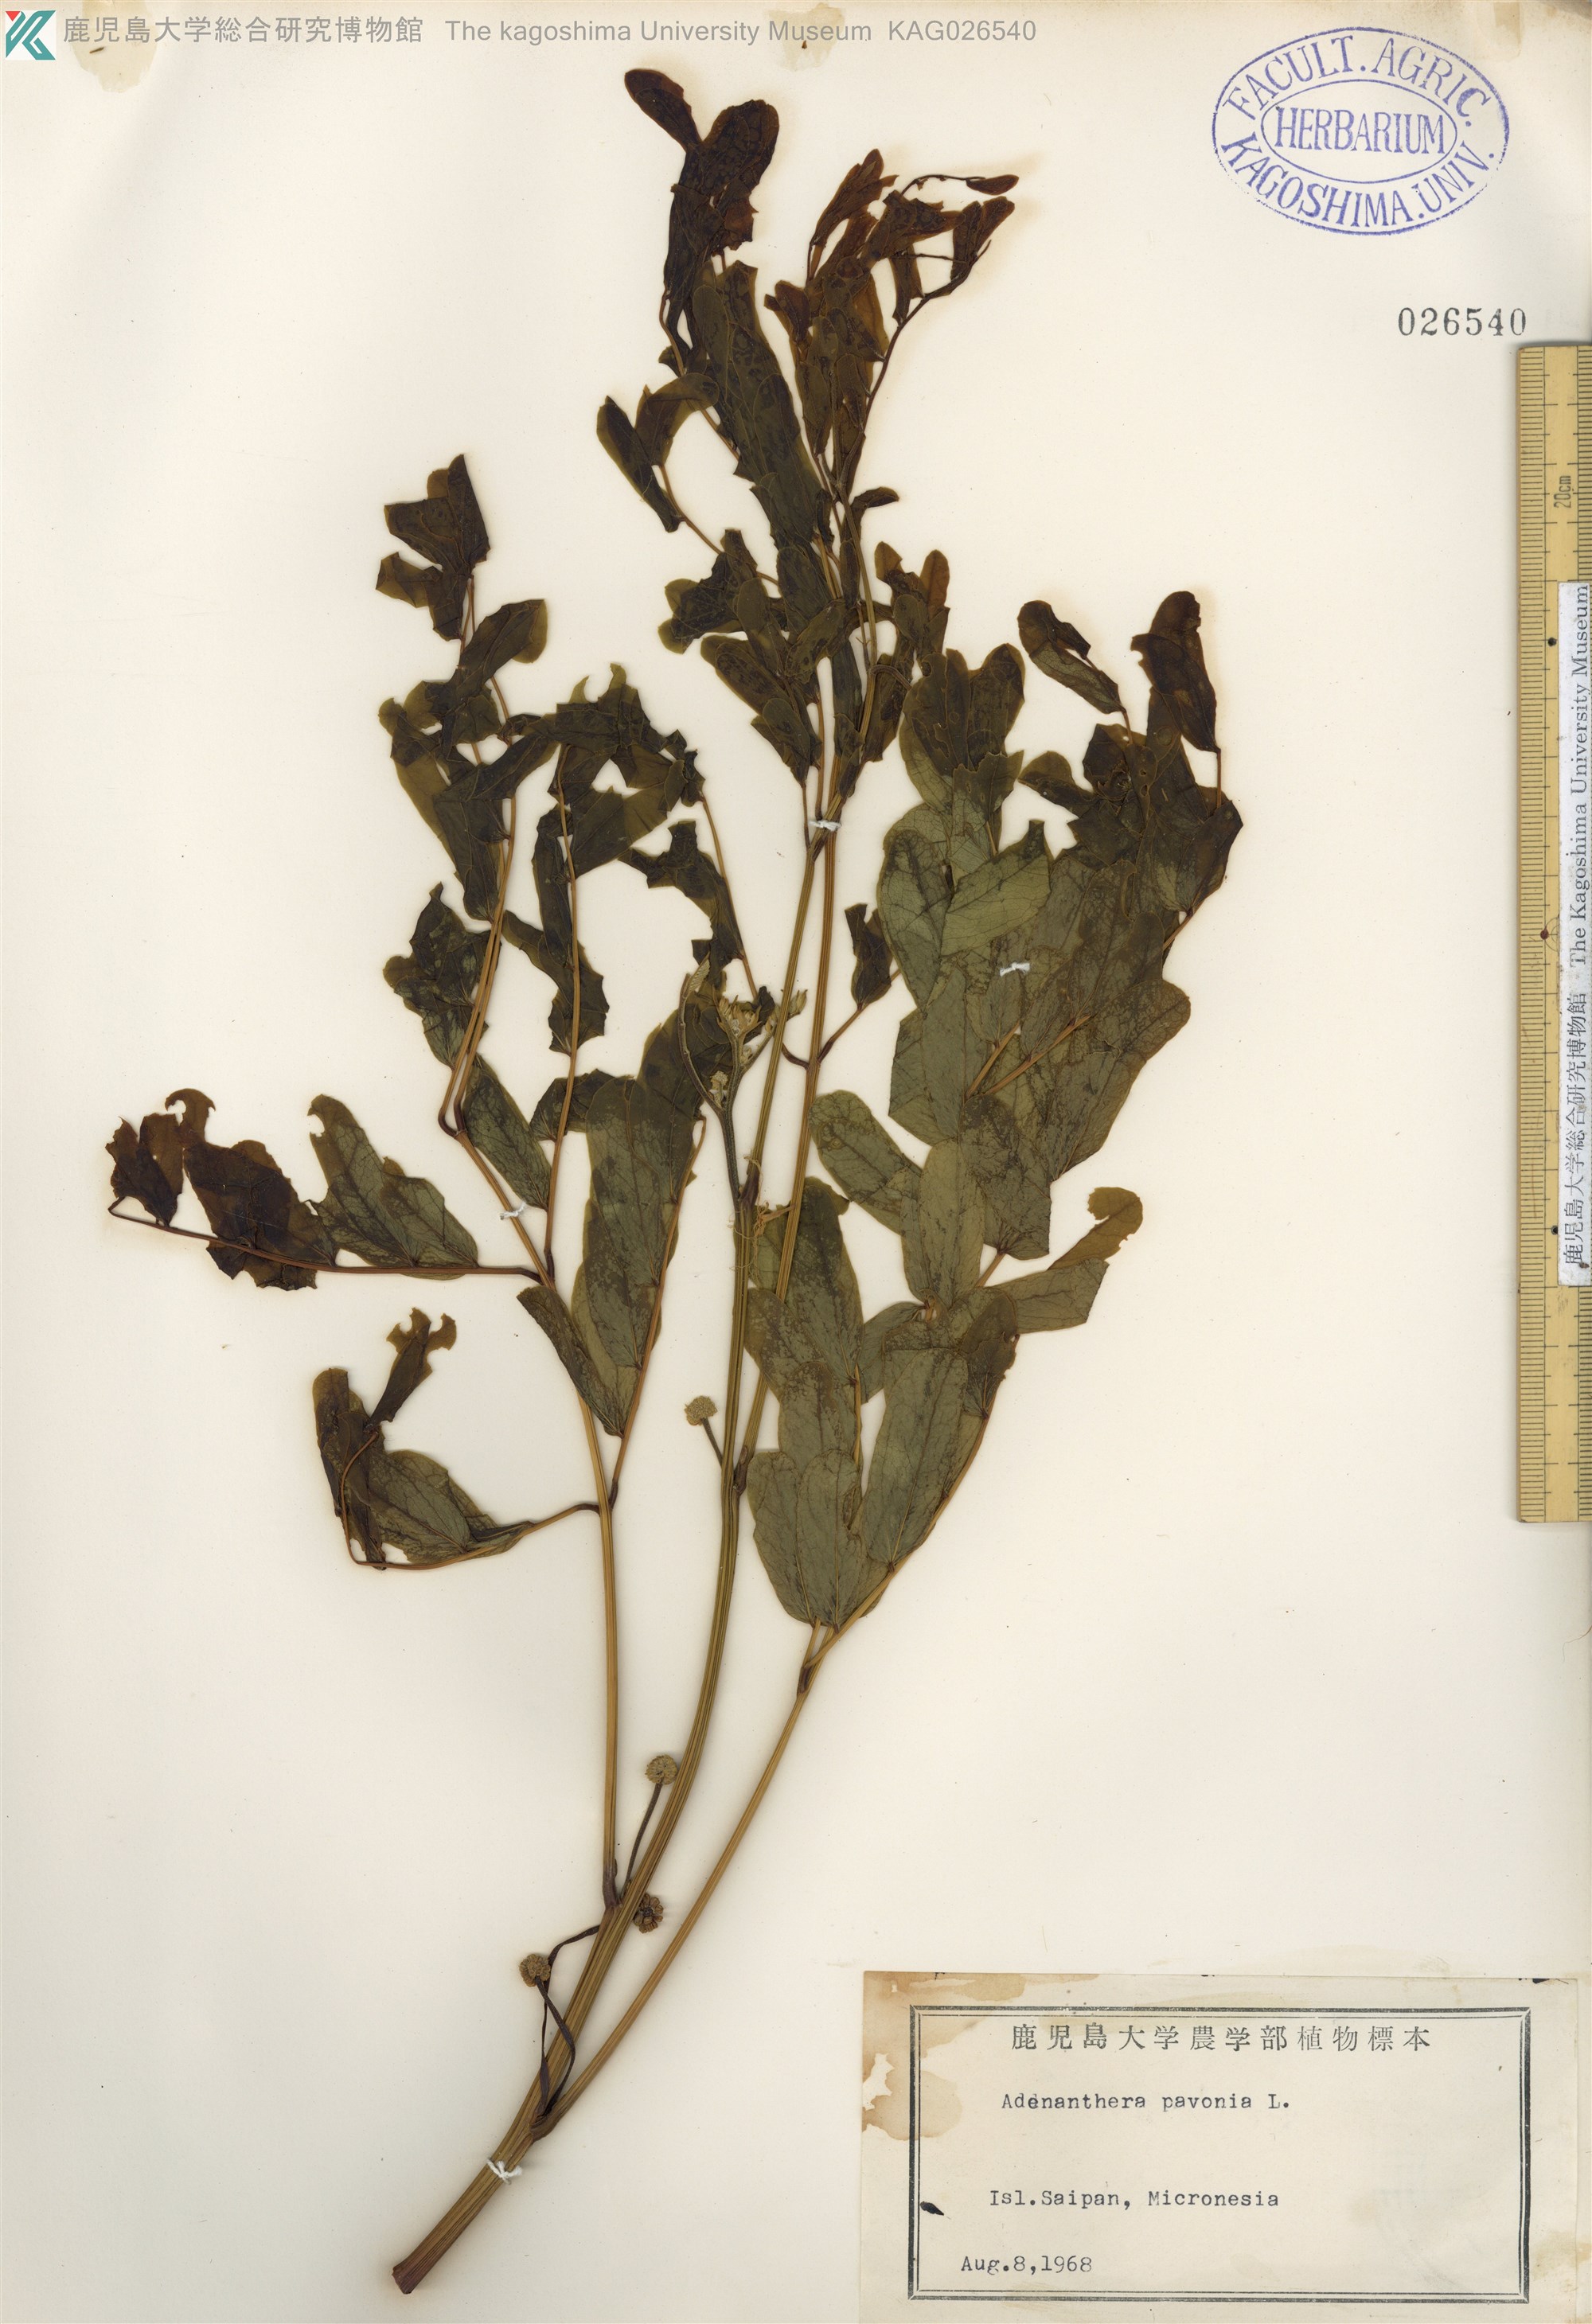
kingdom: Plantae
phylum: Tracheophyta
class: Magnoliopsida
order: Fabales
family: Fabaceae
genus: Albizia
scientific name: Albizia lebbeck
